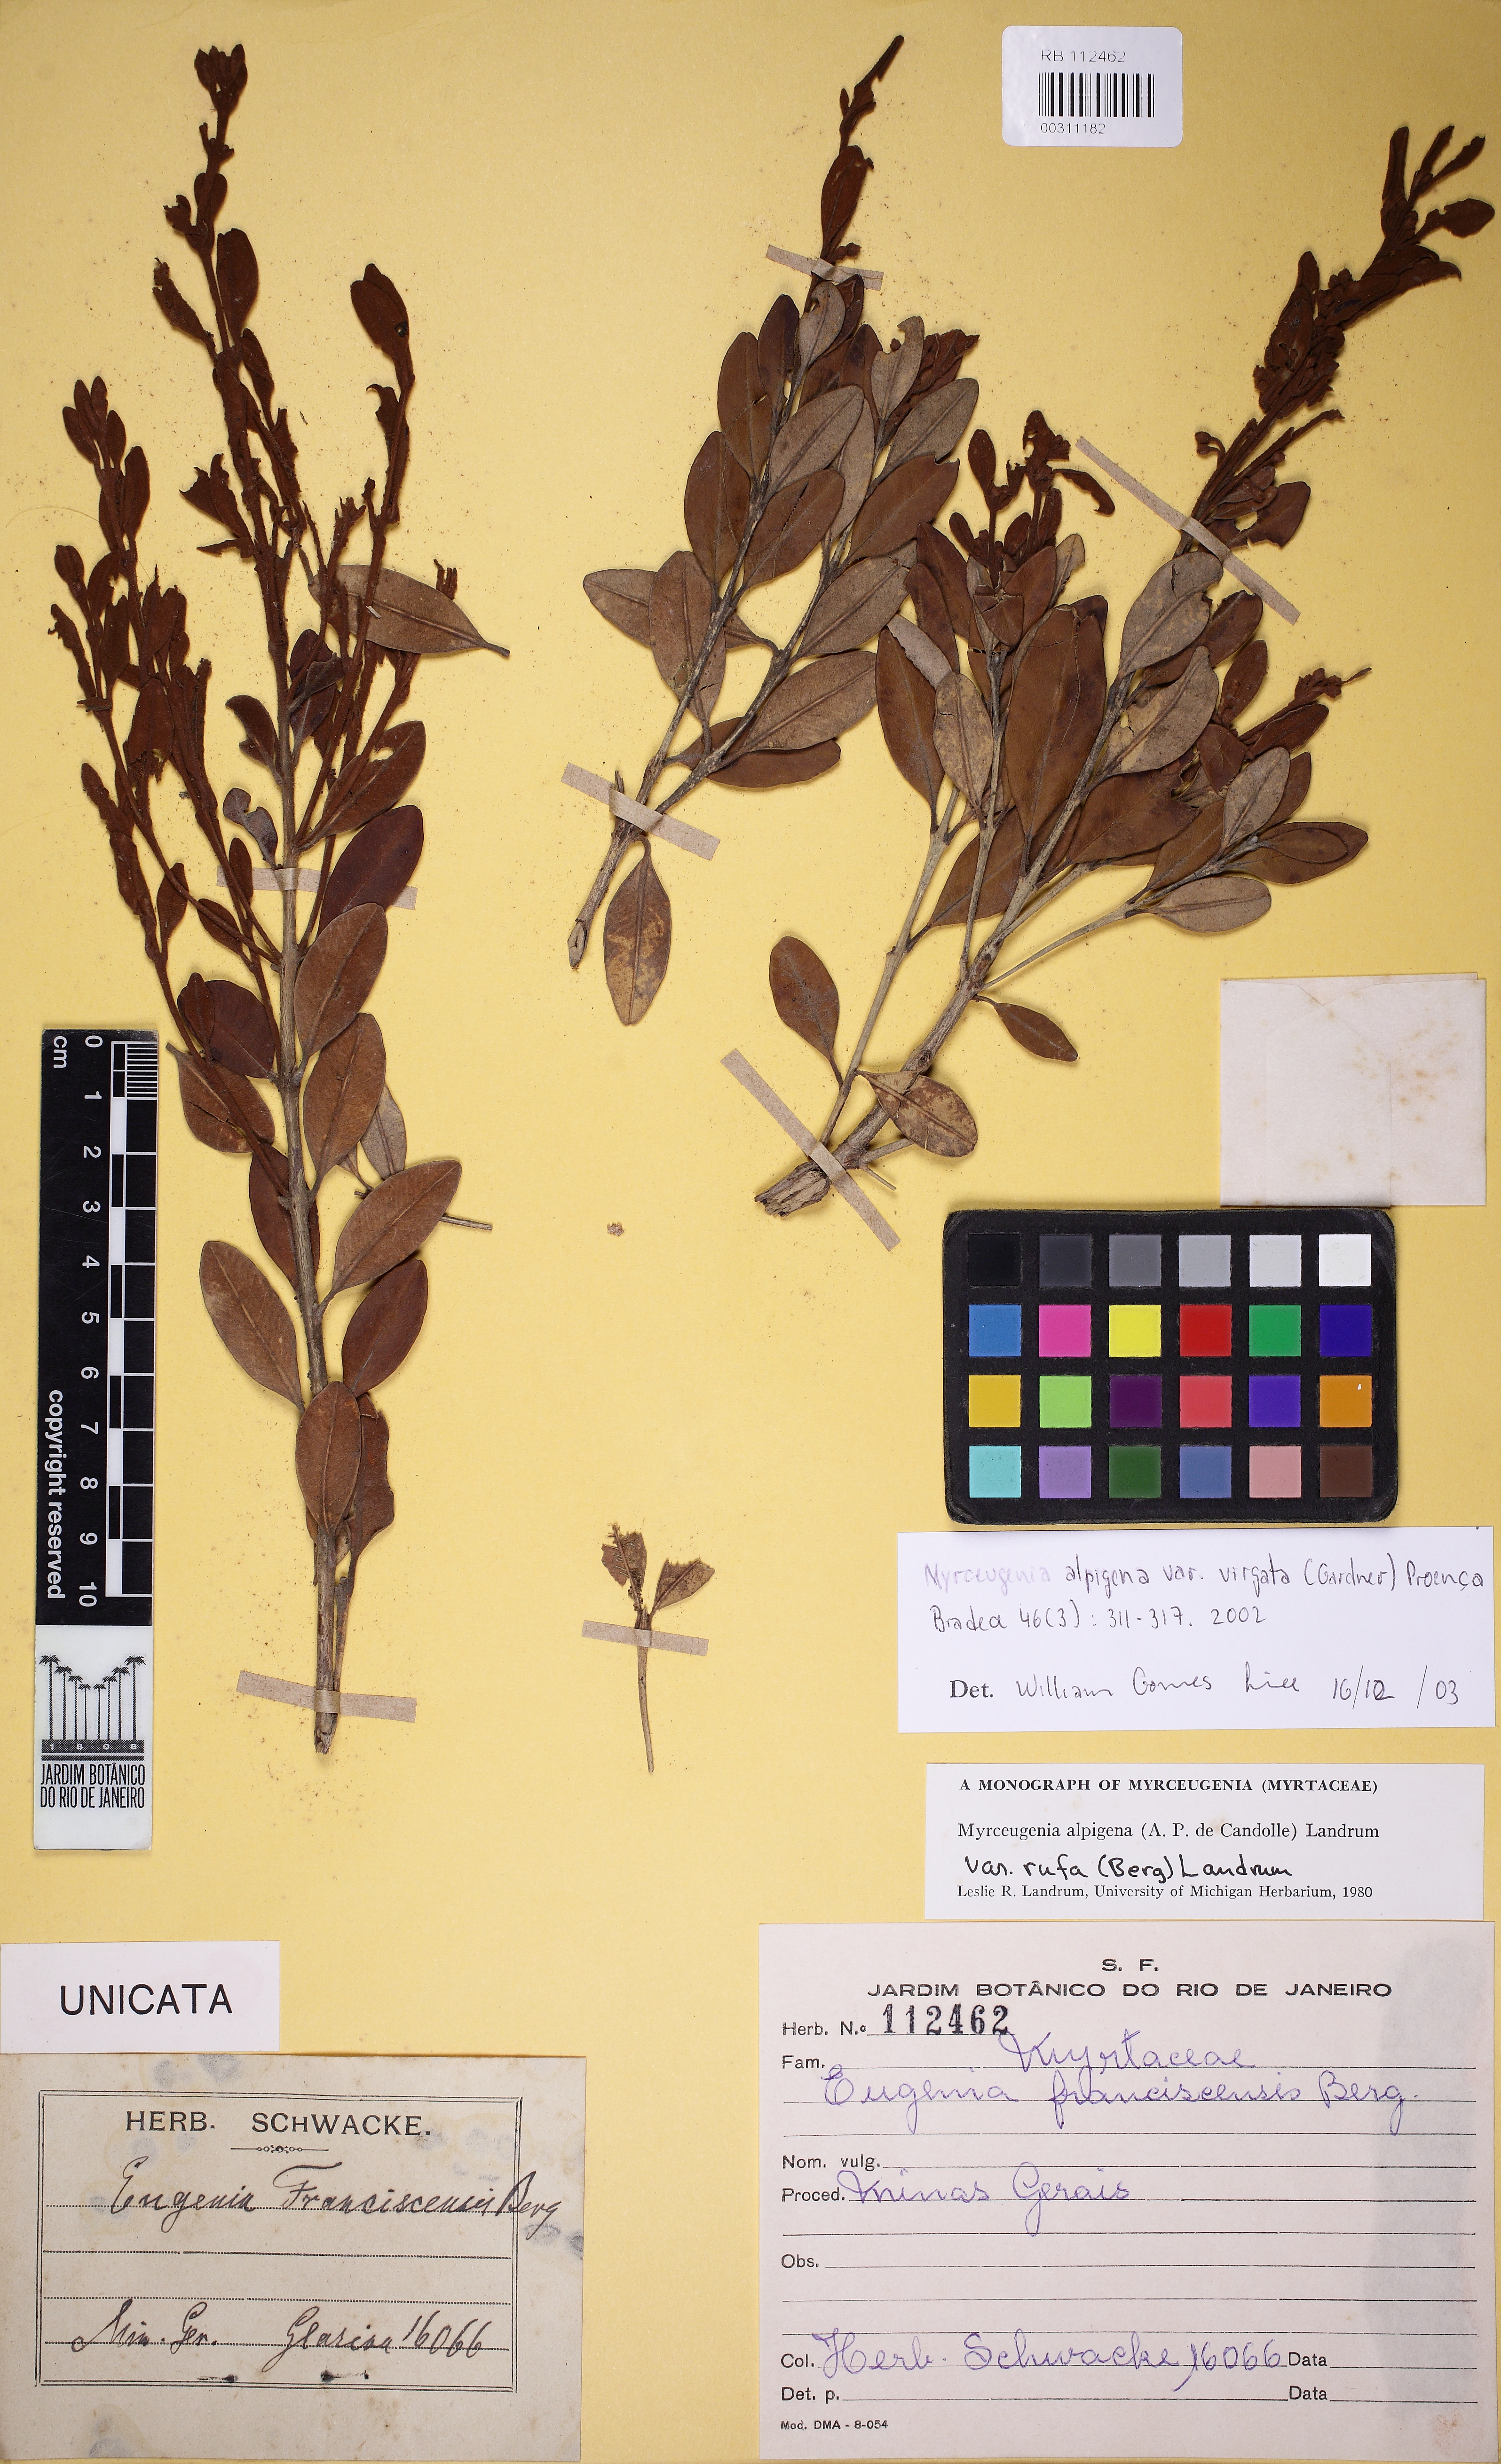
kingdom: Plantae
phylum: Tracheophyta
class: Magnoliopsida
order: Myrtales
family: Myrtaceae
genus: Eugenia
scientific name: Eugenia biflora
